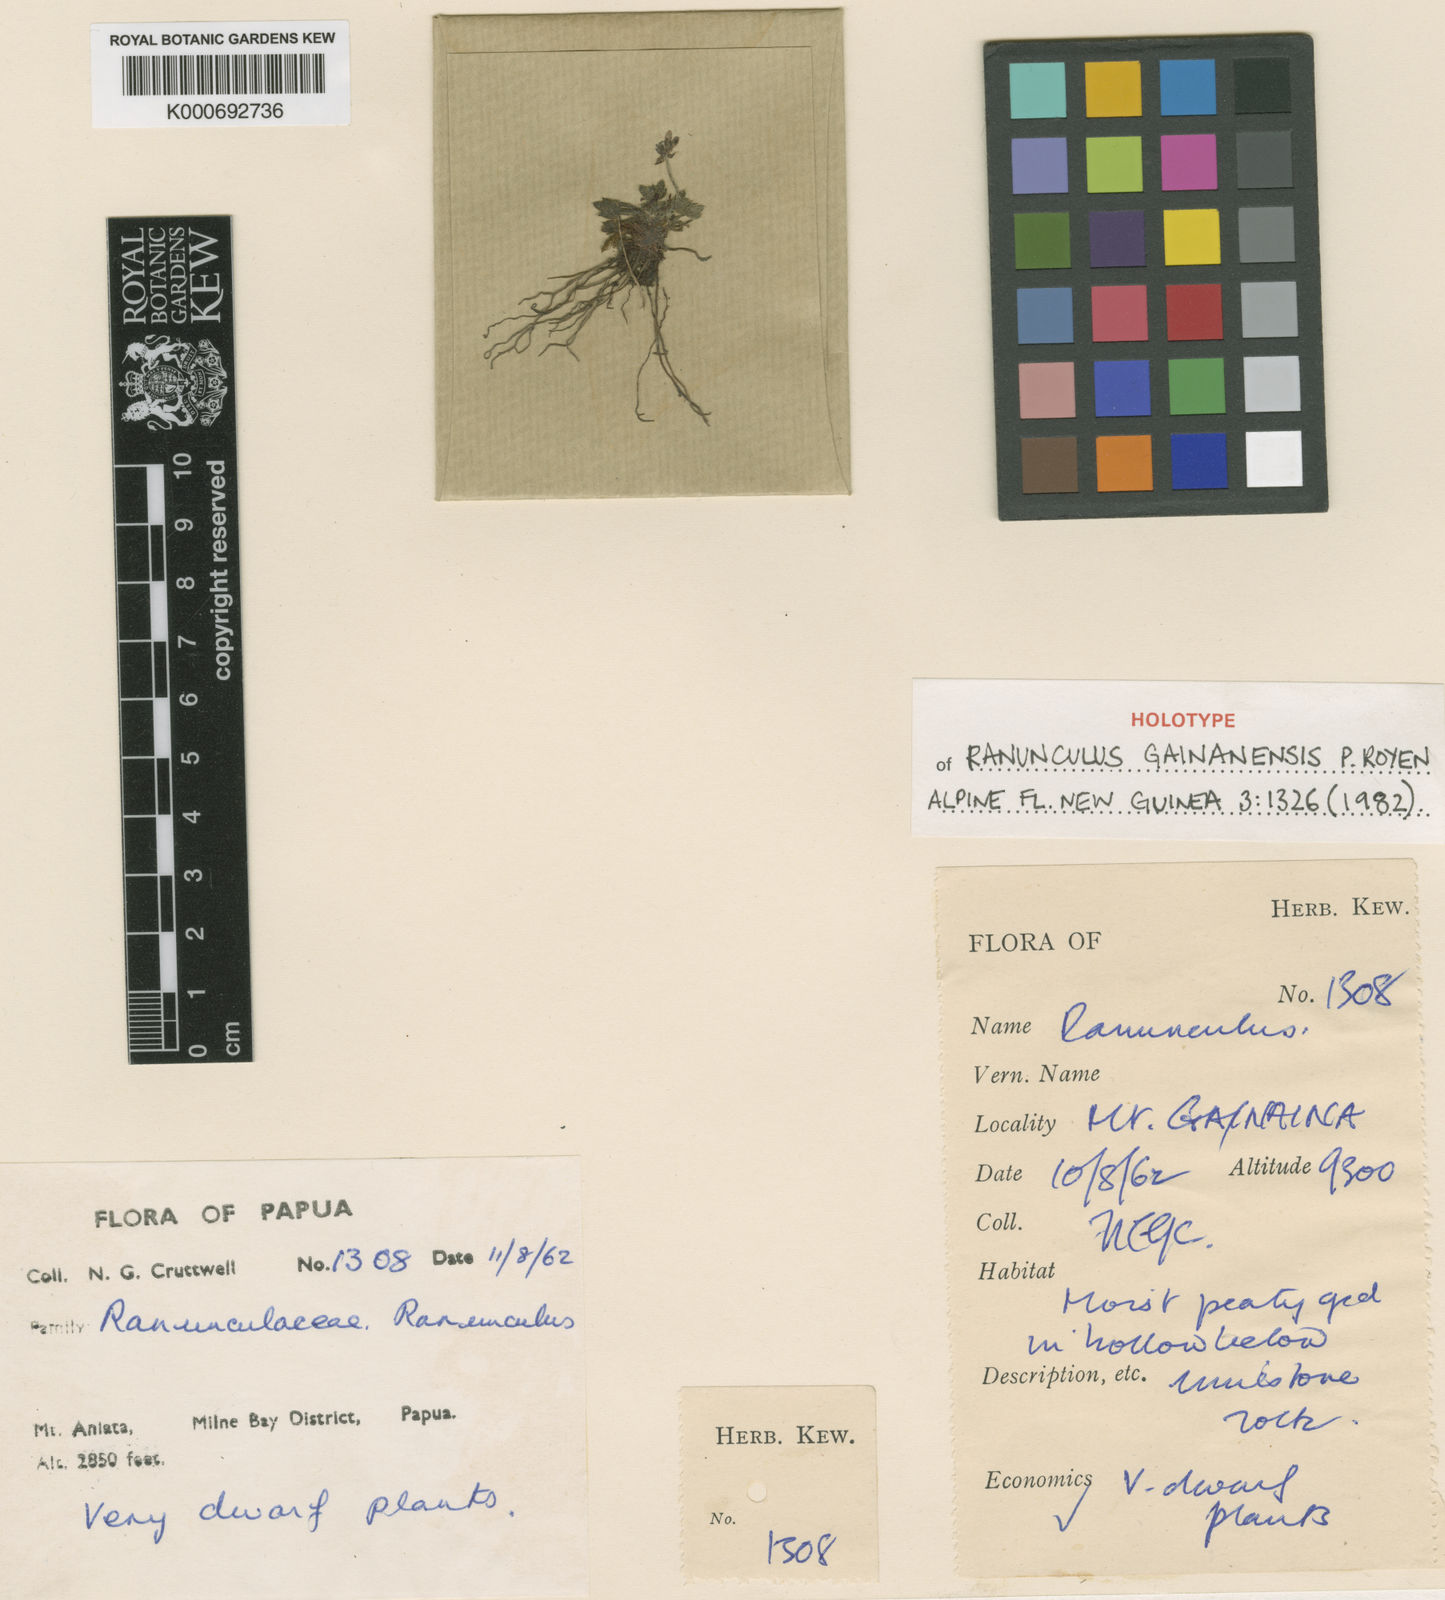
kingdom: Plantae
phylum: Tracheophyta
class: Magnoliopsida
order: Ranunculales
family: Ranunculaceae
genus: Ranunculus
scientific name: Ranunculus gainanensis
